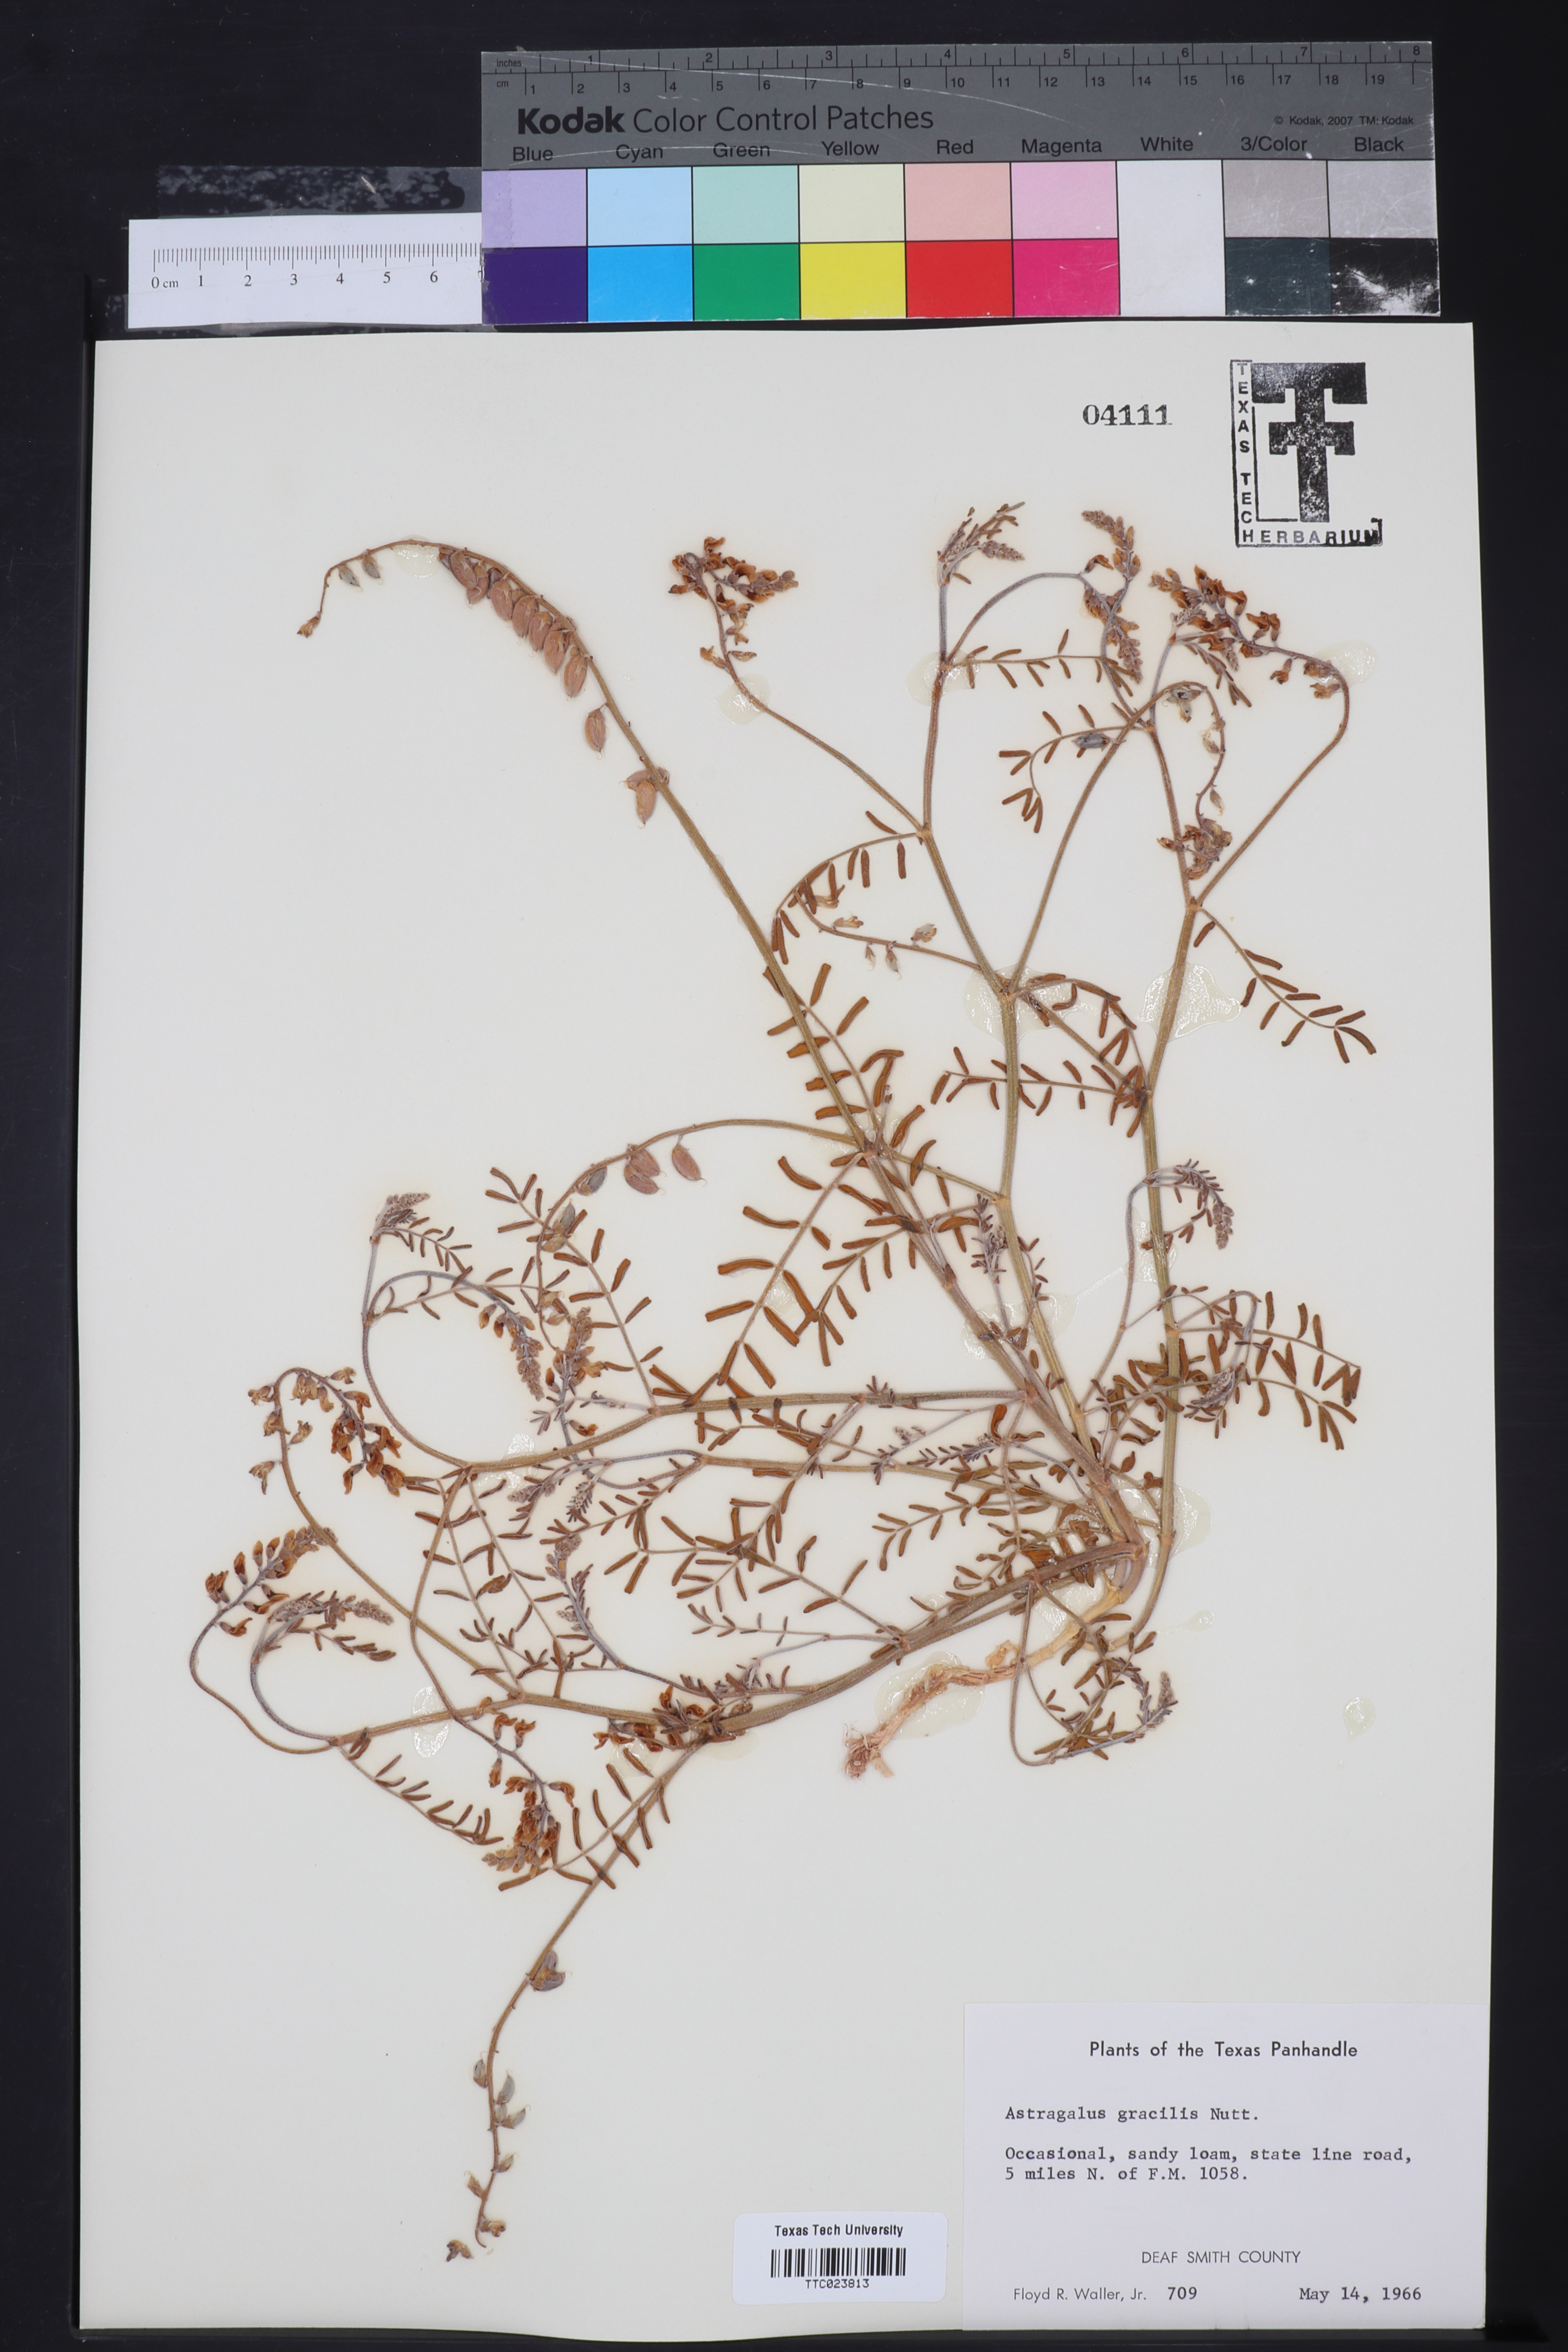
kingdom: Plantae
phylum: Tracheophyta
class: Magnoliopsida
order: Fabales
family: Fabaceae
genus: Astragalus
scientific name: Astragalus gracilis
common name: Slender milk-vetch
